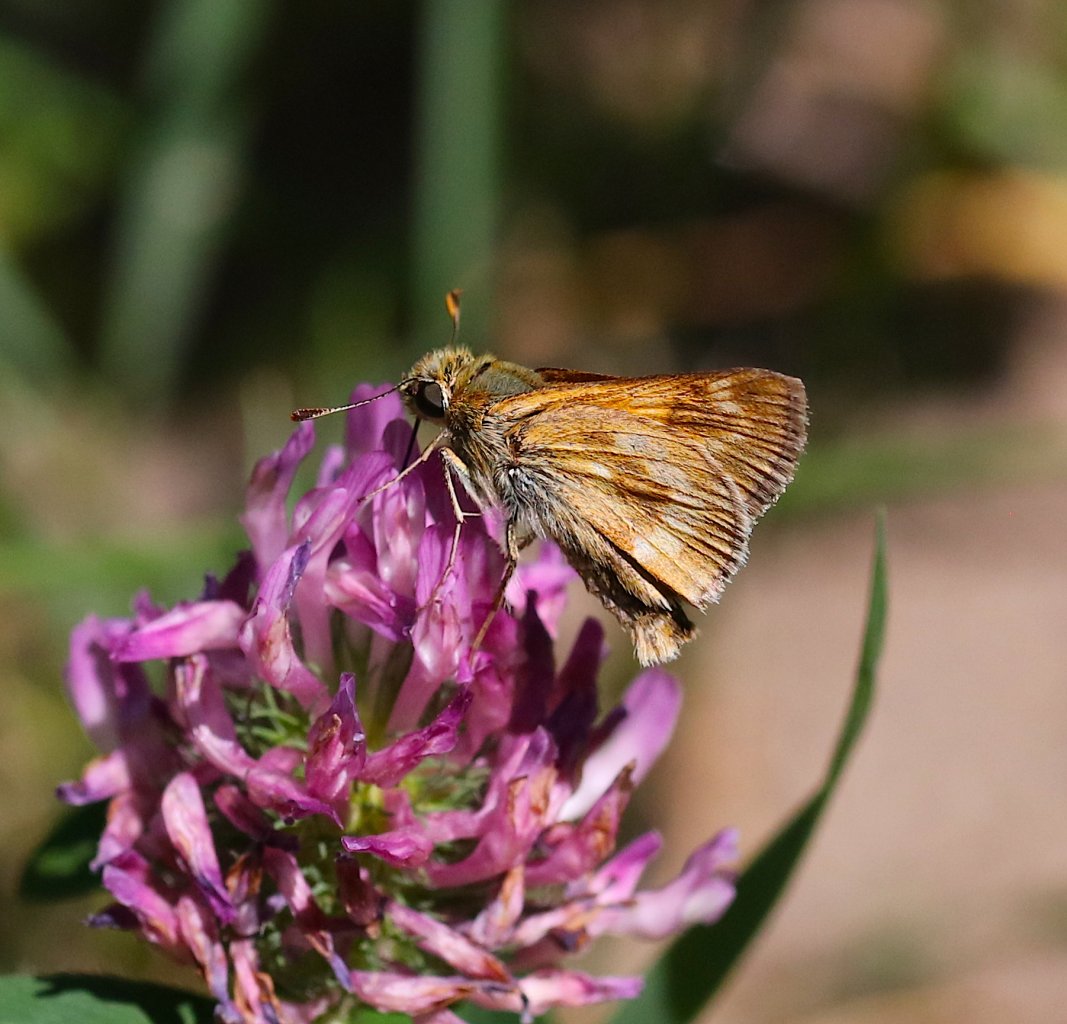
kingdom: Animalia
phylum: Arthropoda
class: Insecta
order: Lepidoptera
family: Hesperiidae
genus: Polites
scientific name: Polites
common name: Long Dash Skipper
